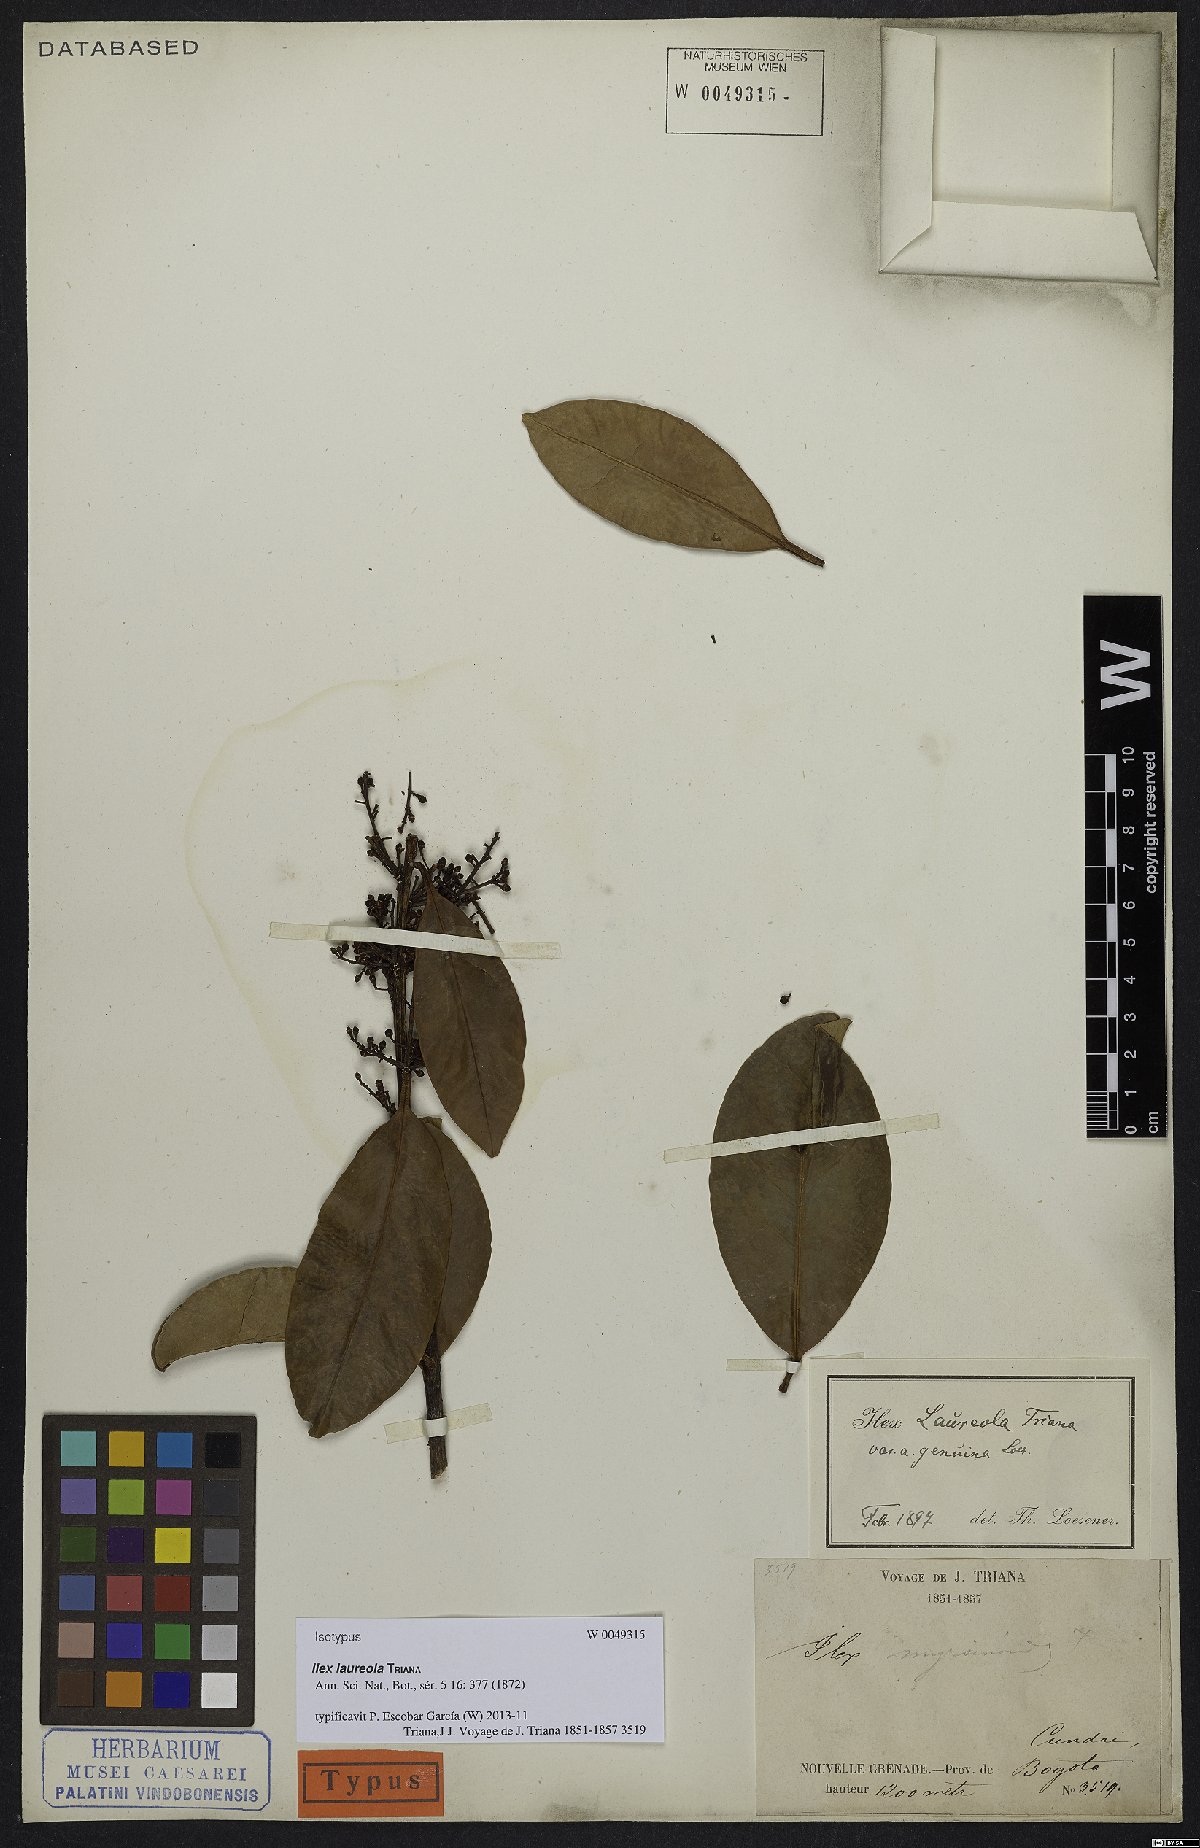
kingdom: Plantae
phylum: Tracheophyta
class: Magnoliopsida
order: Aquifoliales
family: Aquifoliaceae
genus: Ilex
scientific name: Ilex laureola
